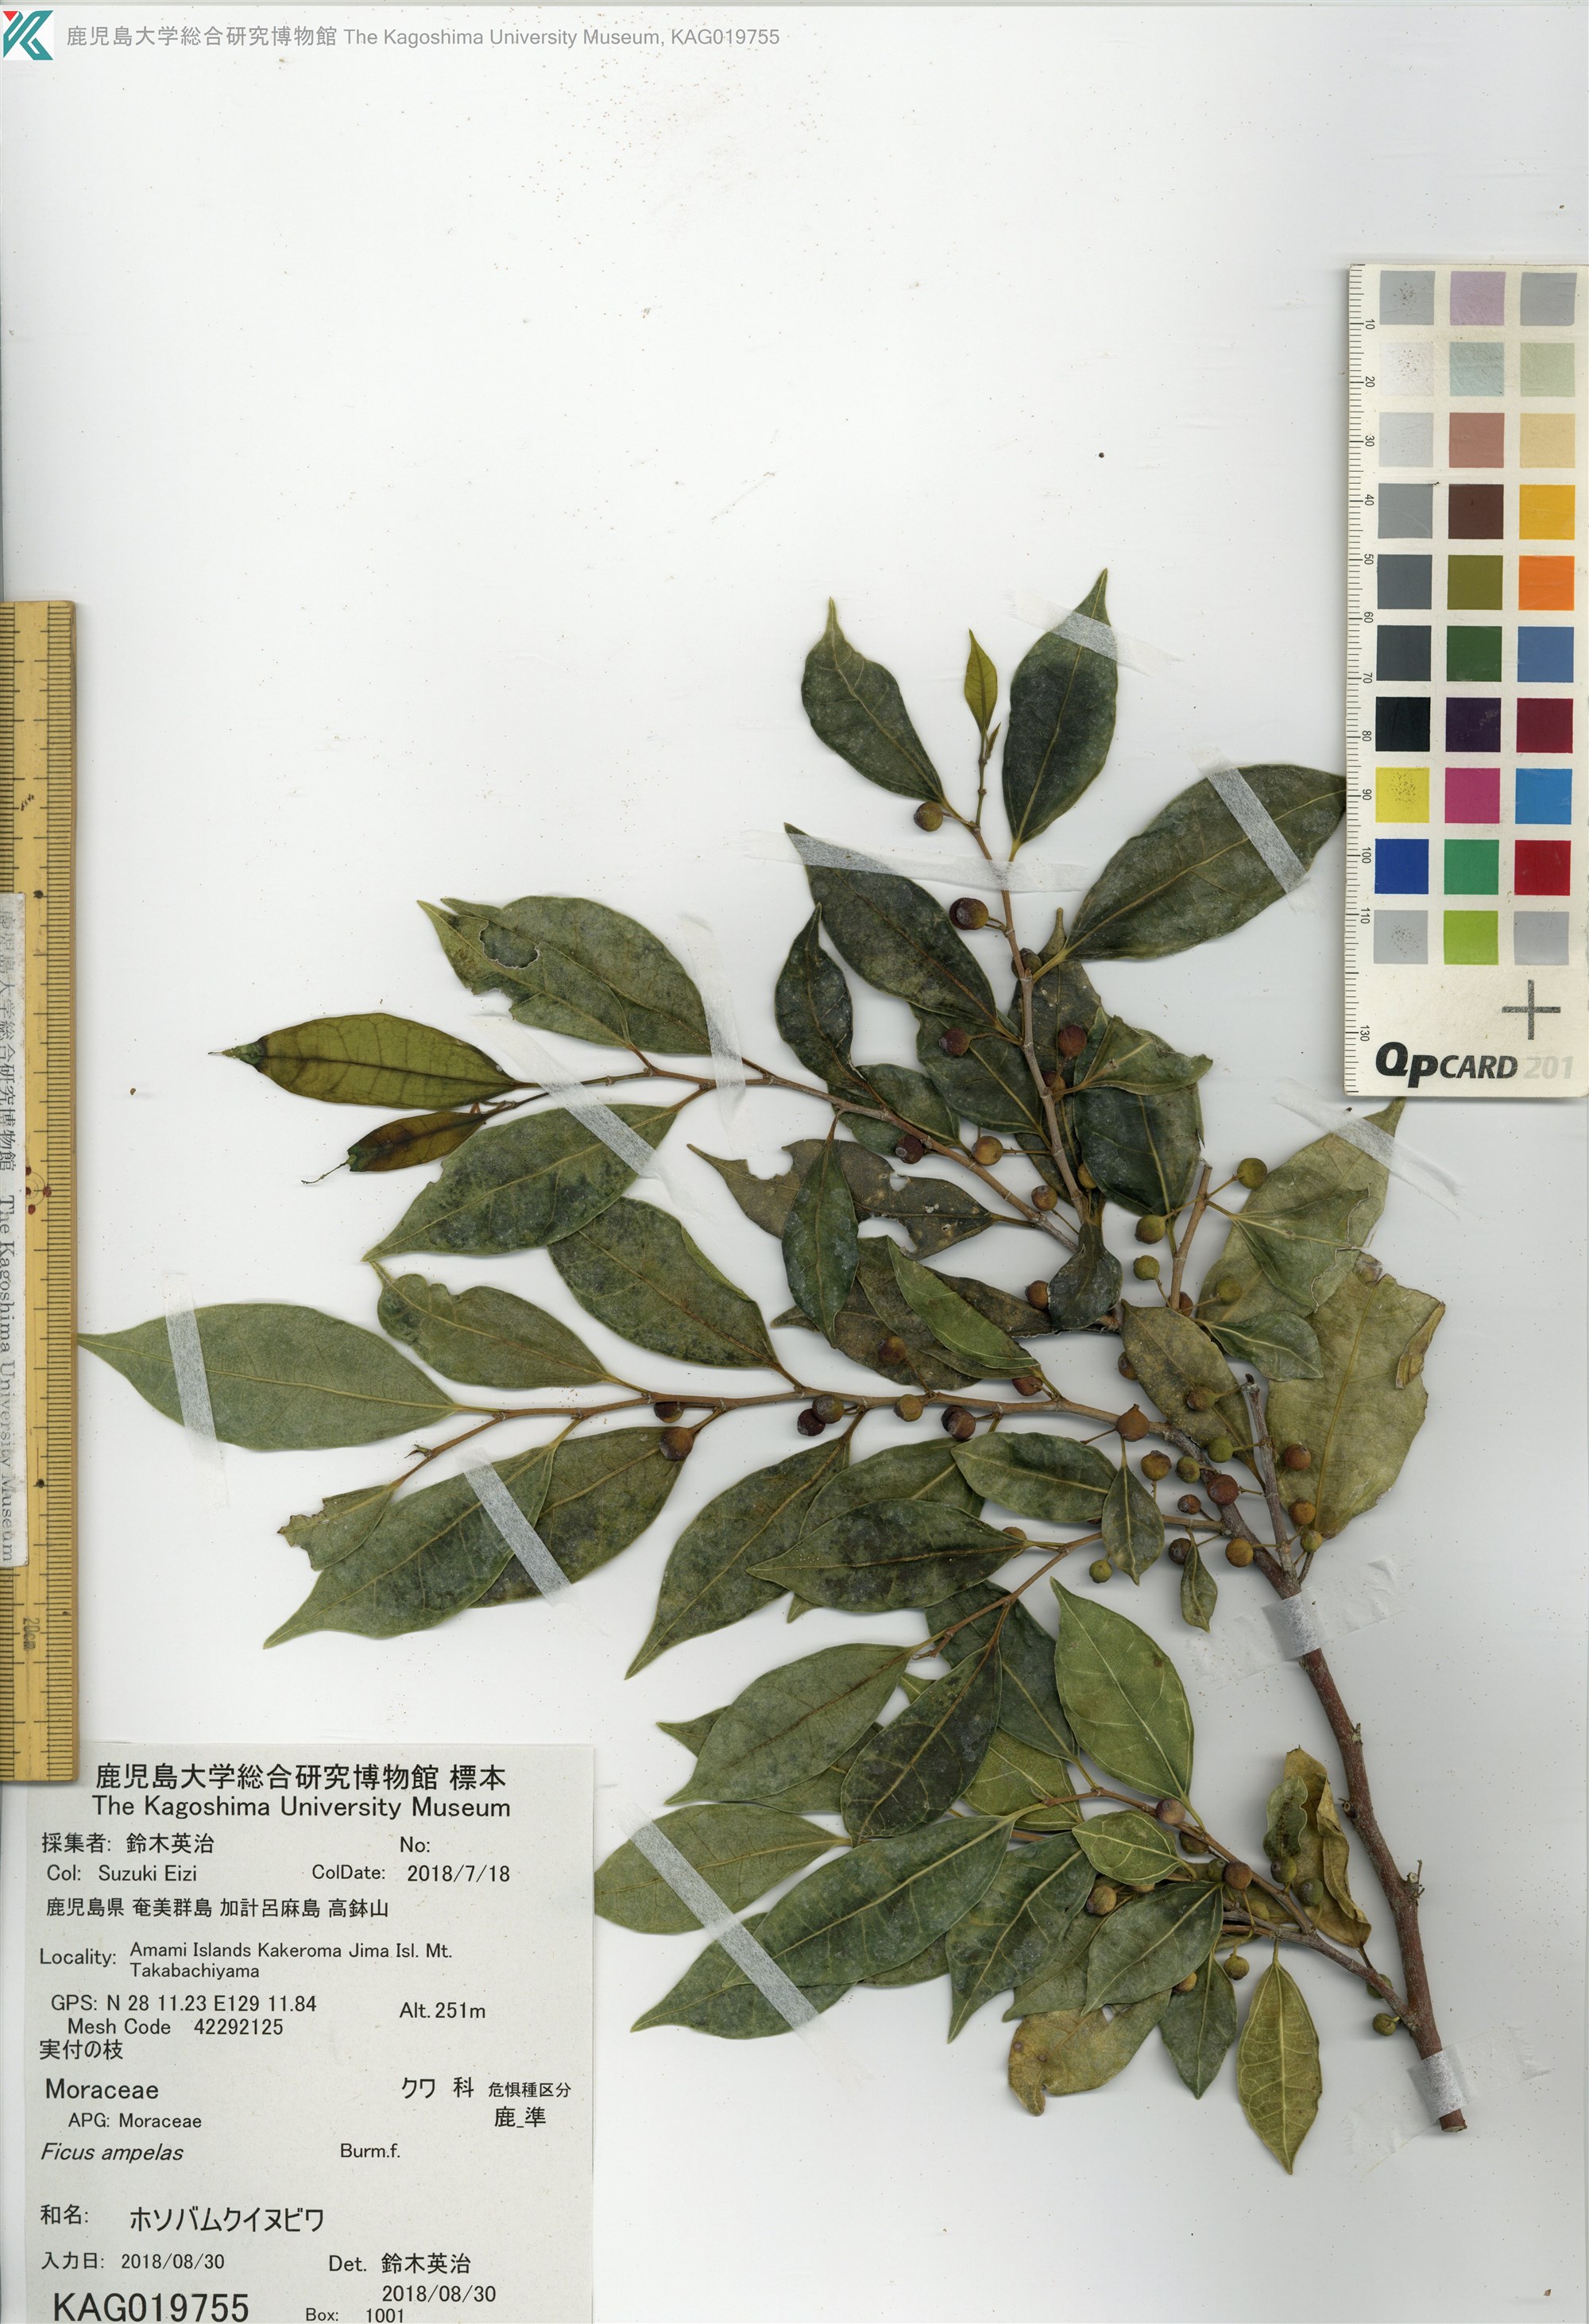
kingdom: Plantae
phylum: Tracheophyta
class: Magnoliopsida
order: Rosales
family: Moraceae
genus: Ficus
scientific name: Ficus ampelas
